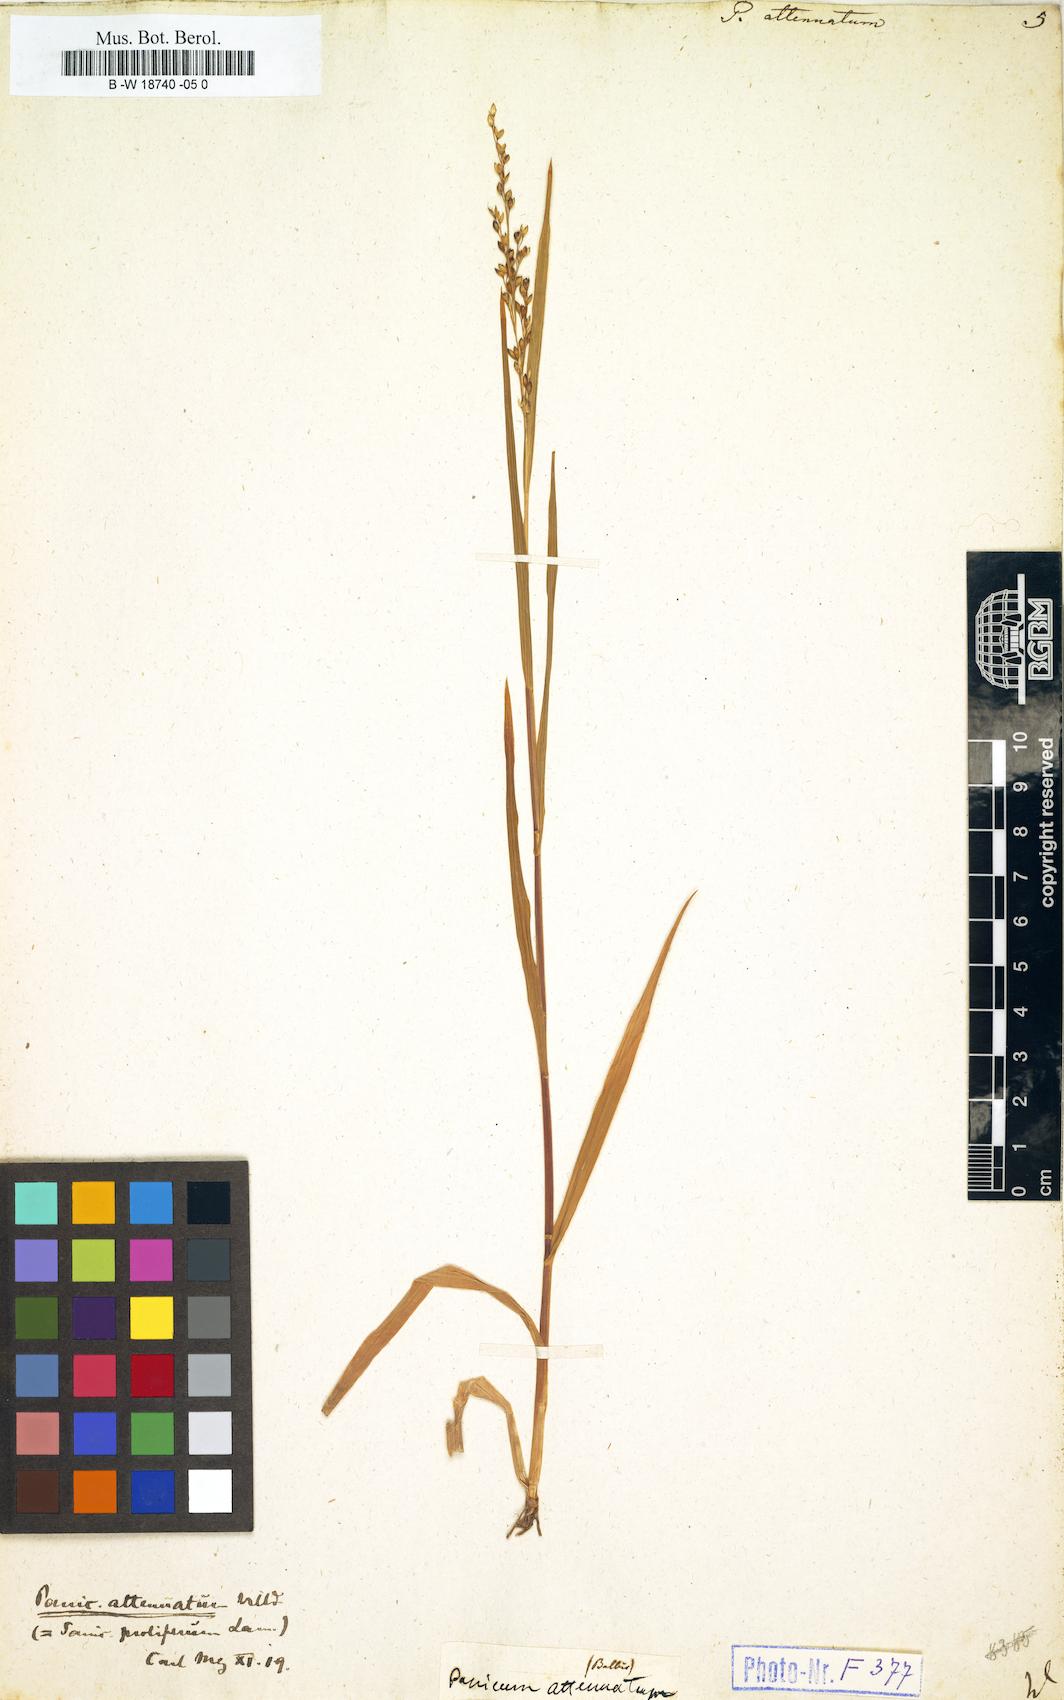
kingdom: Plantae
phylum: Tracheophyta
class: Liliopsida
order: Poales
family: Poaceae
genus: Panicum
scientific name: Panicum sumatrense
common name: Little millet
